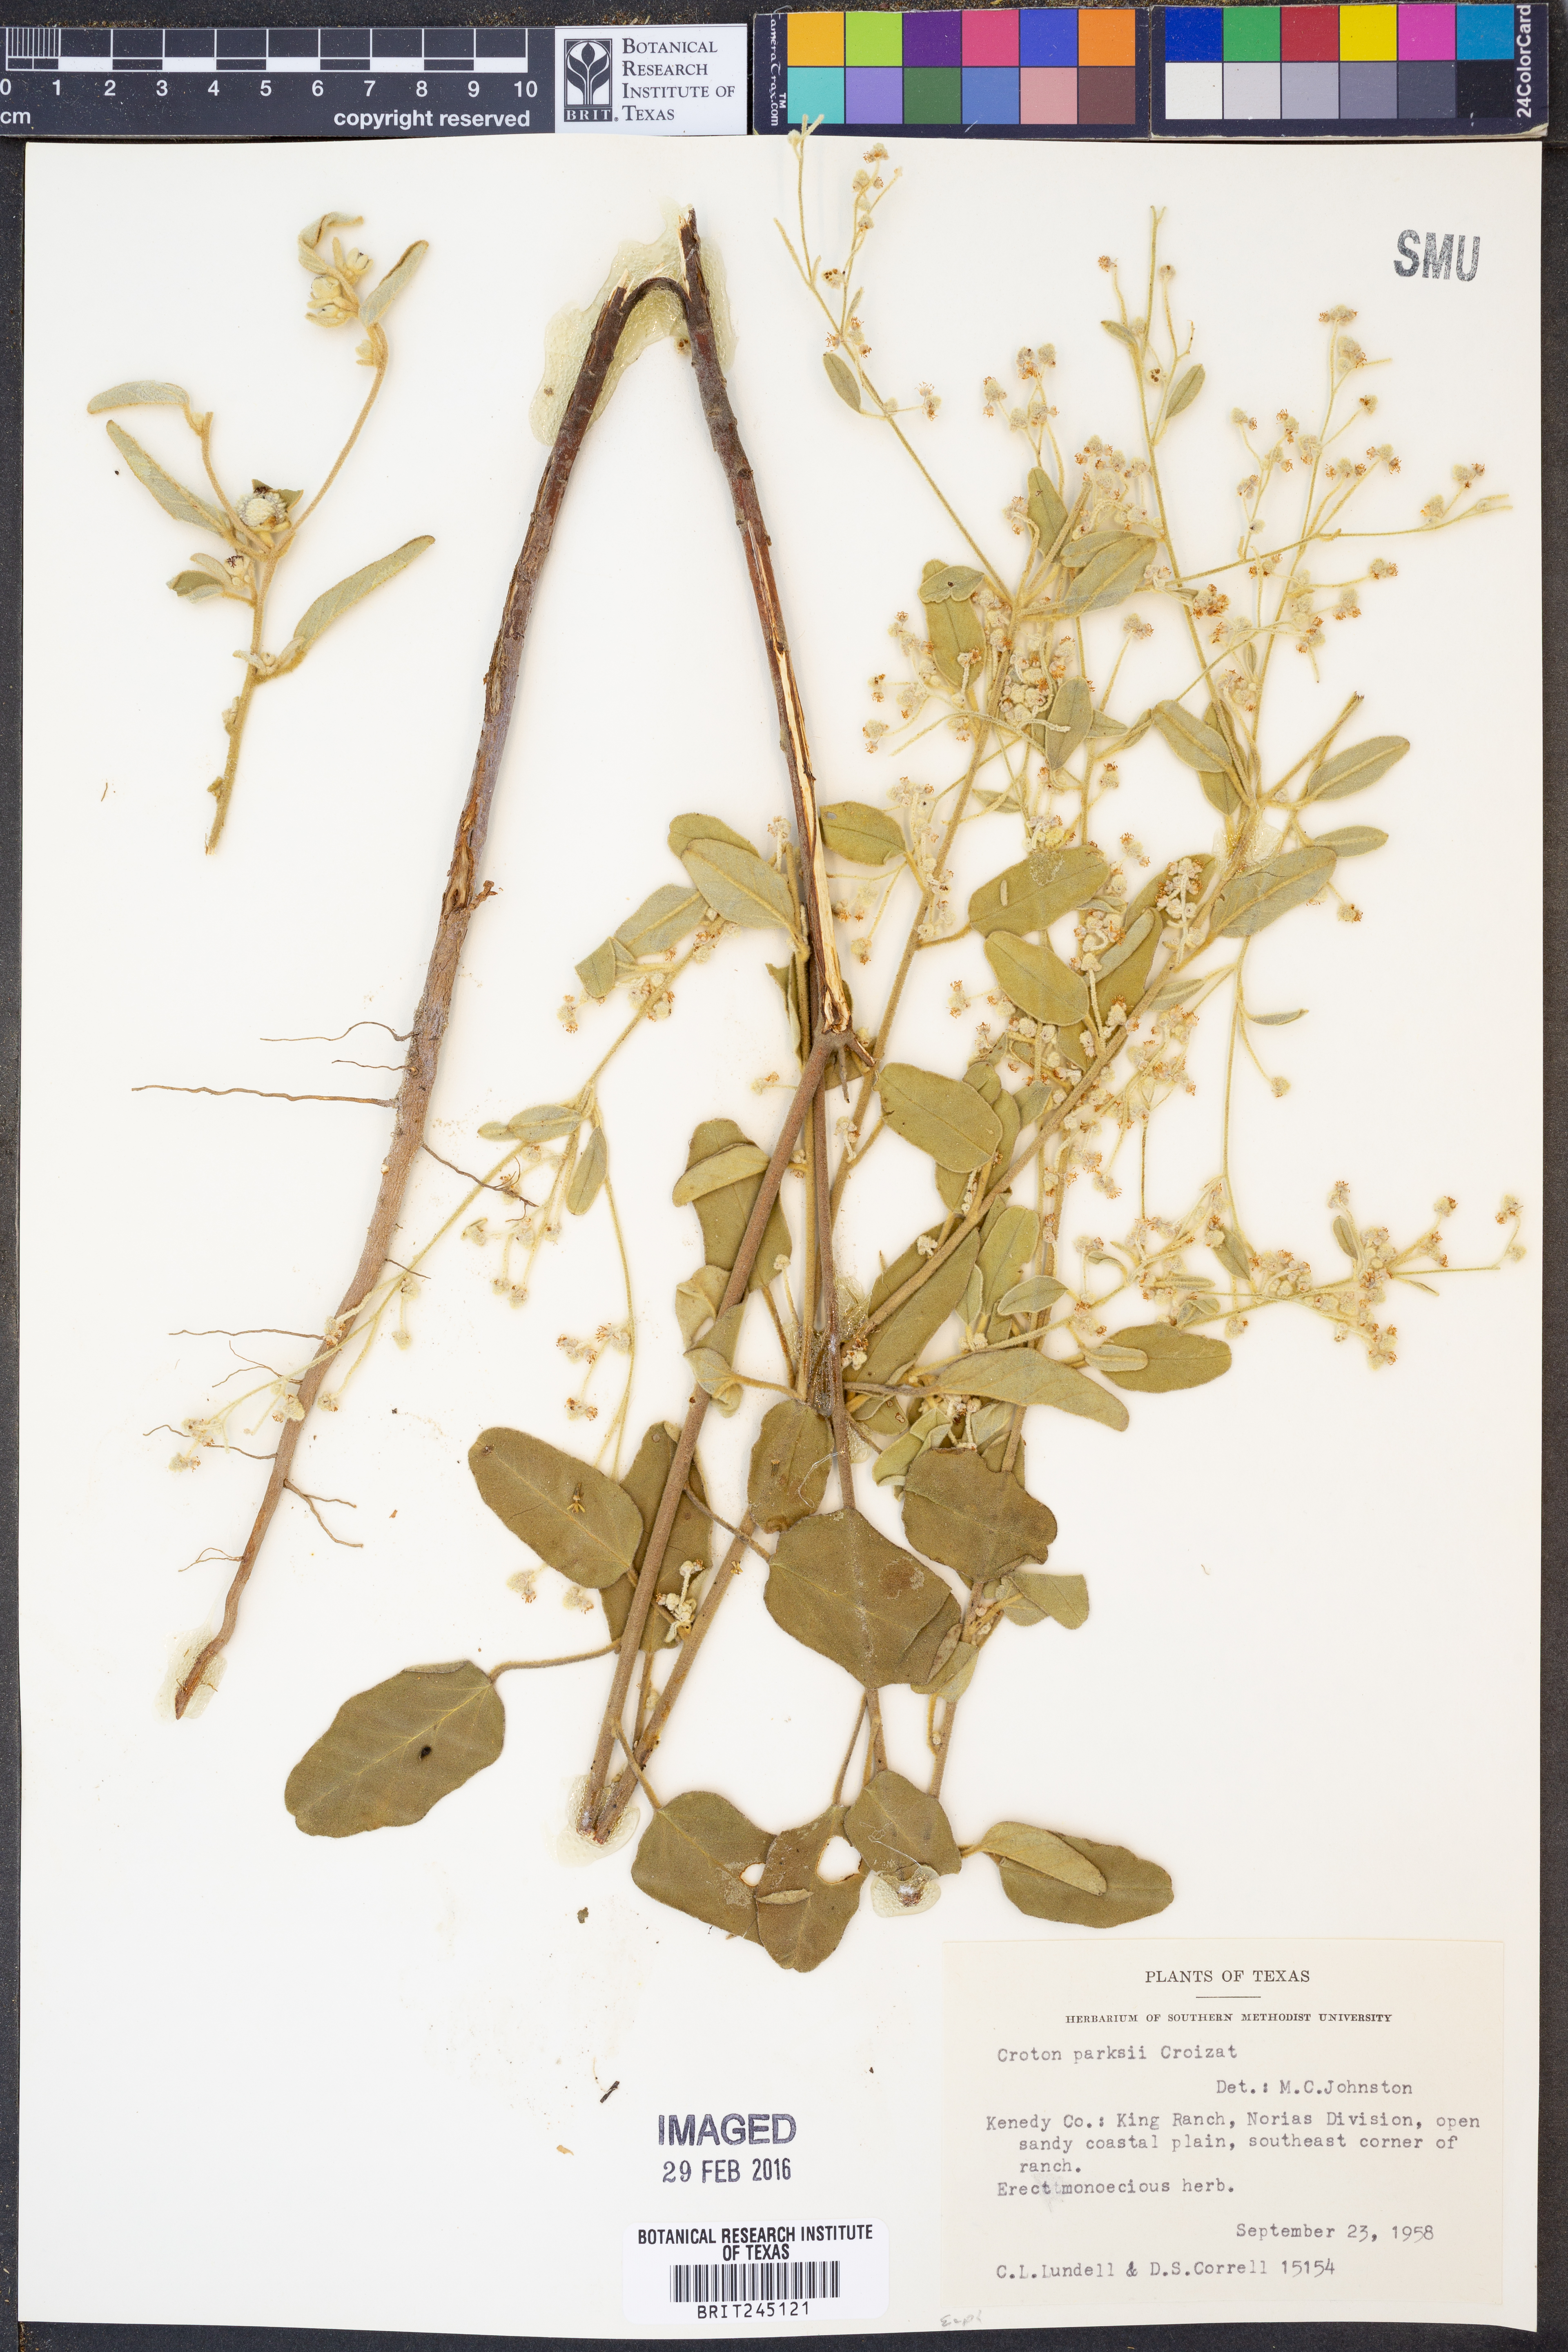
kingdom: Plantae
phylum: Tracheophyta
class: Magnoliopsida
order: Malpighiales
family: Euphorbiaceae
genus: Croton
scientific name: Croton parksii
